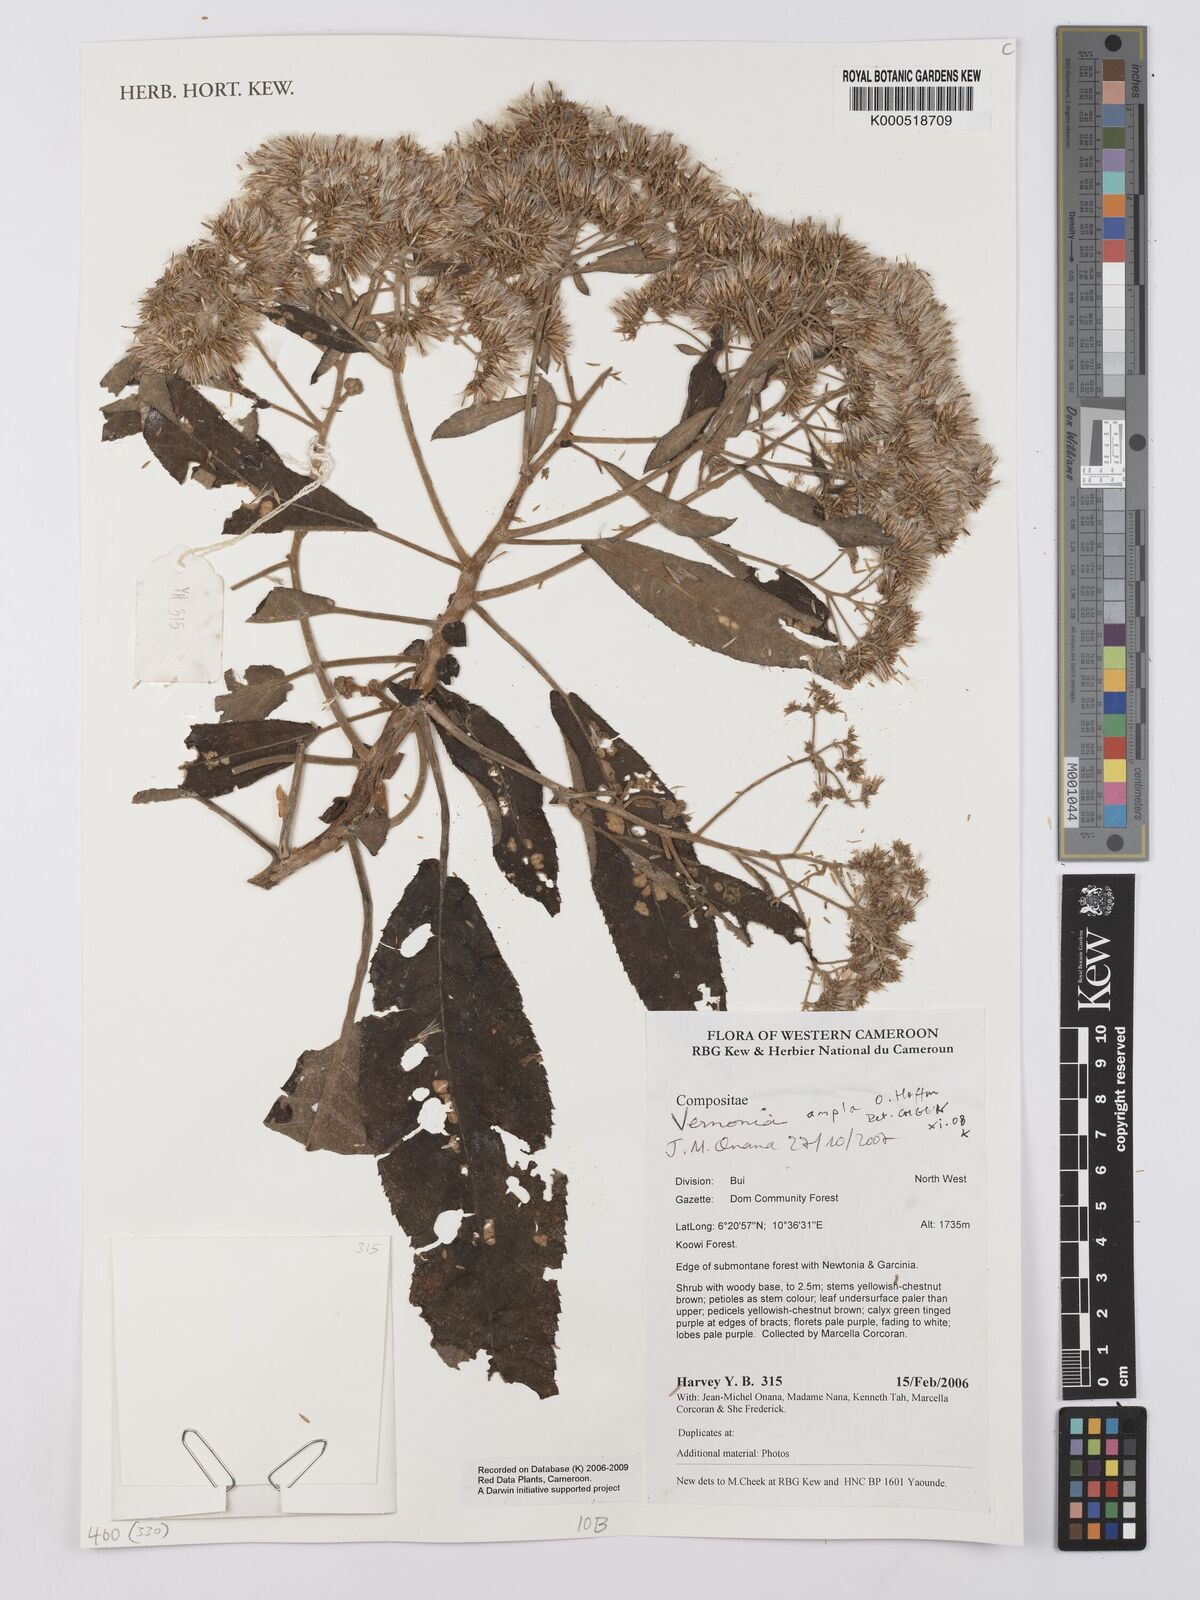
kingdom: Plantae
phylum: Tracheophyta
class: Magnoliopsida
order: Asterales
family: Asteraceae
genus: Gymnanthemum
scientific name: Gymnanthemum myrianthum
